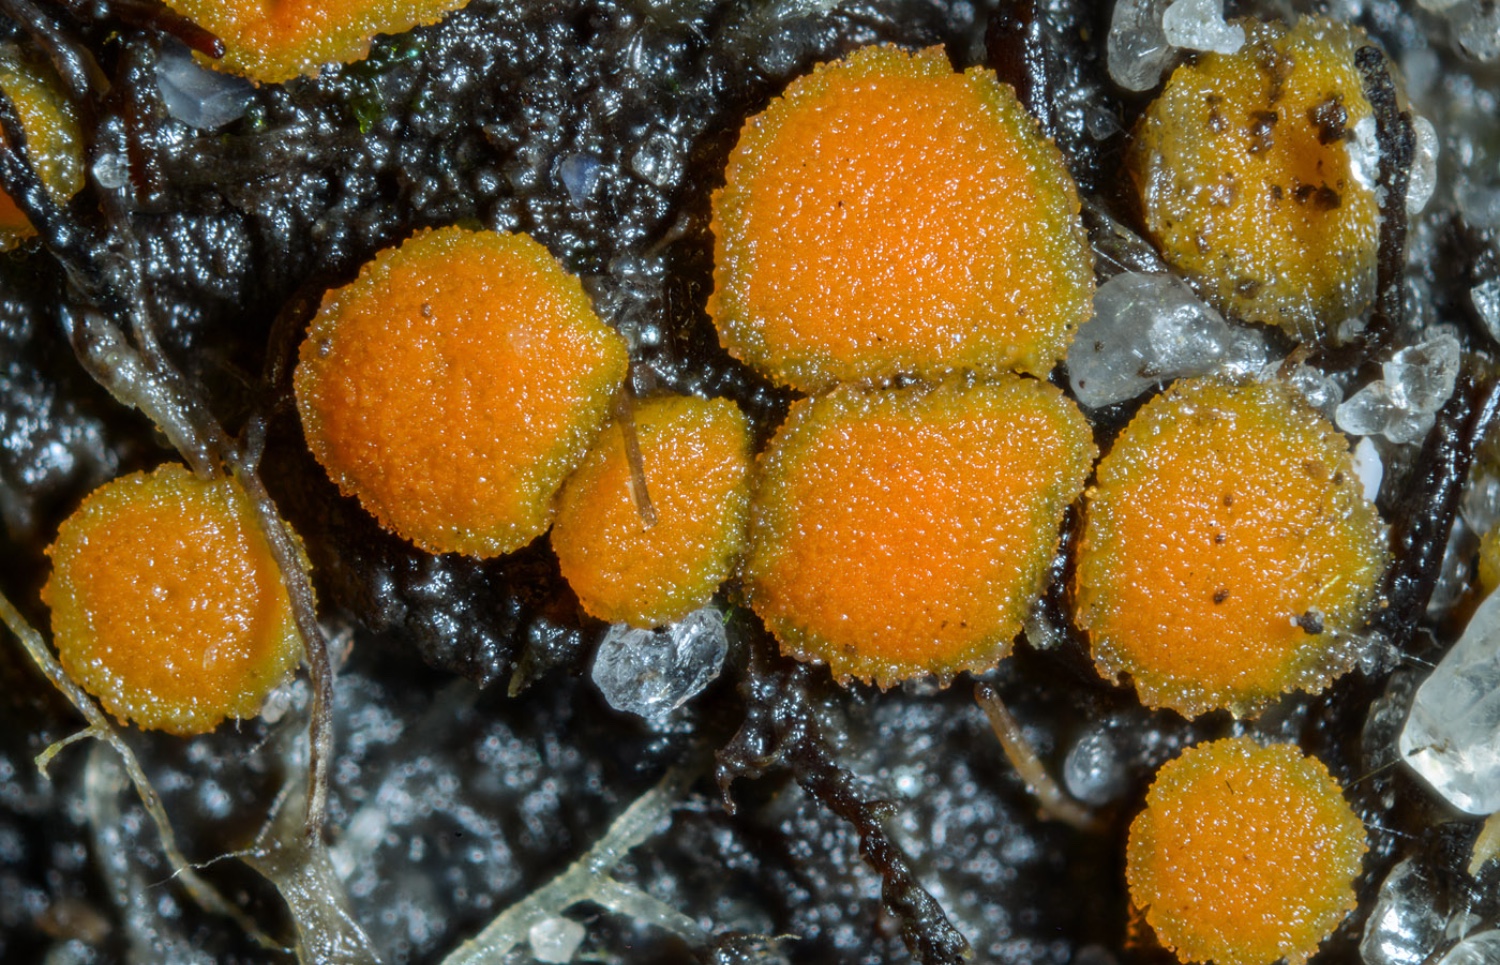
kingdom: Fungi
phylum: Ascomycota
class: Pezizomycetes
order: Pezizales
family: Pyronemataceae
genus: Ramsbottomia
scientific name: Ramsbottomia macracantha
